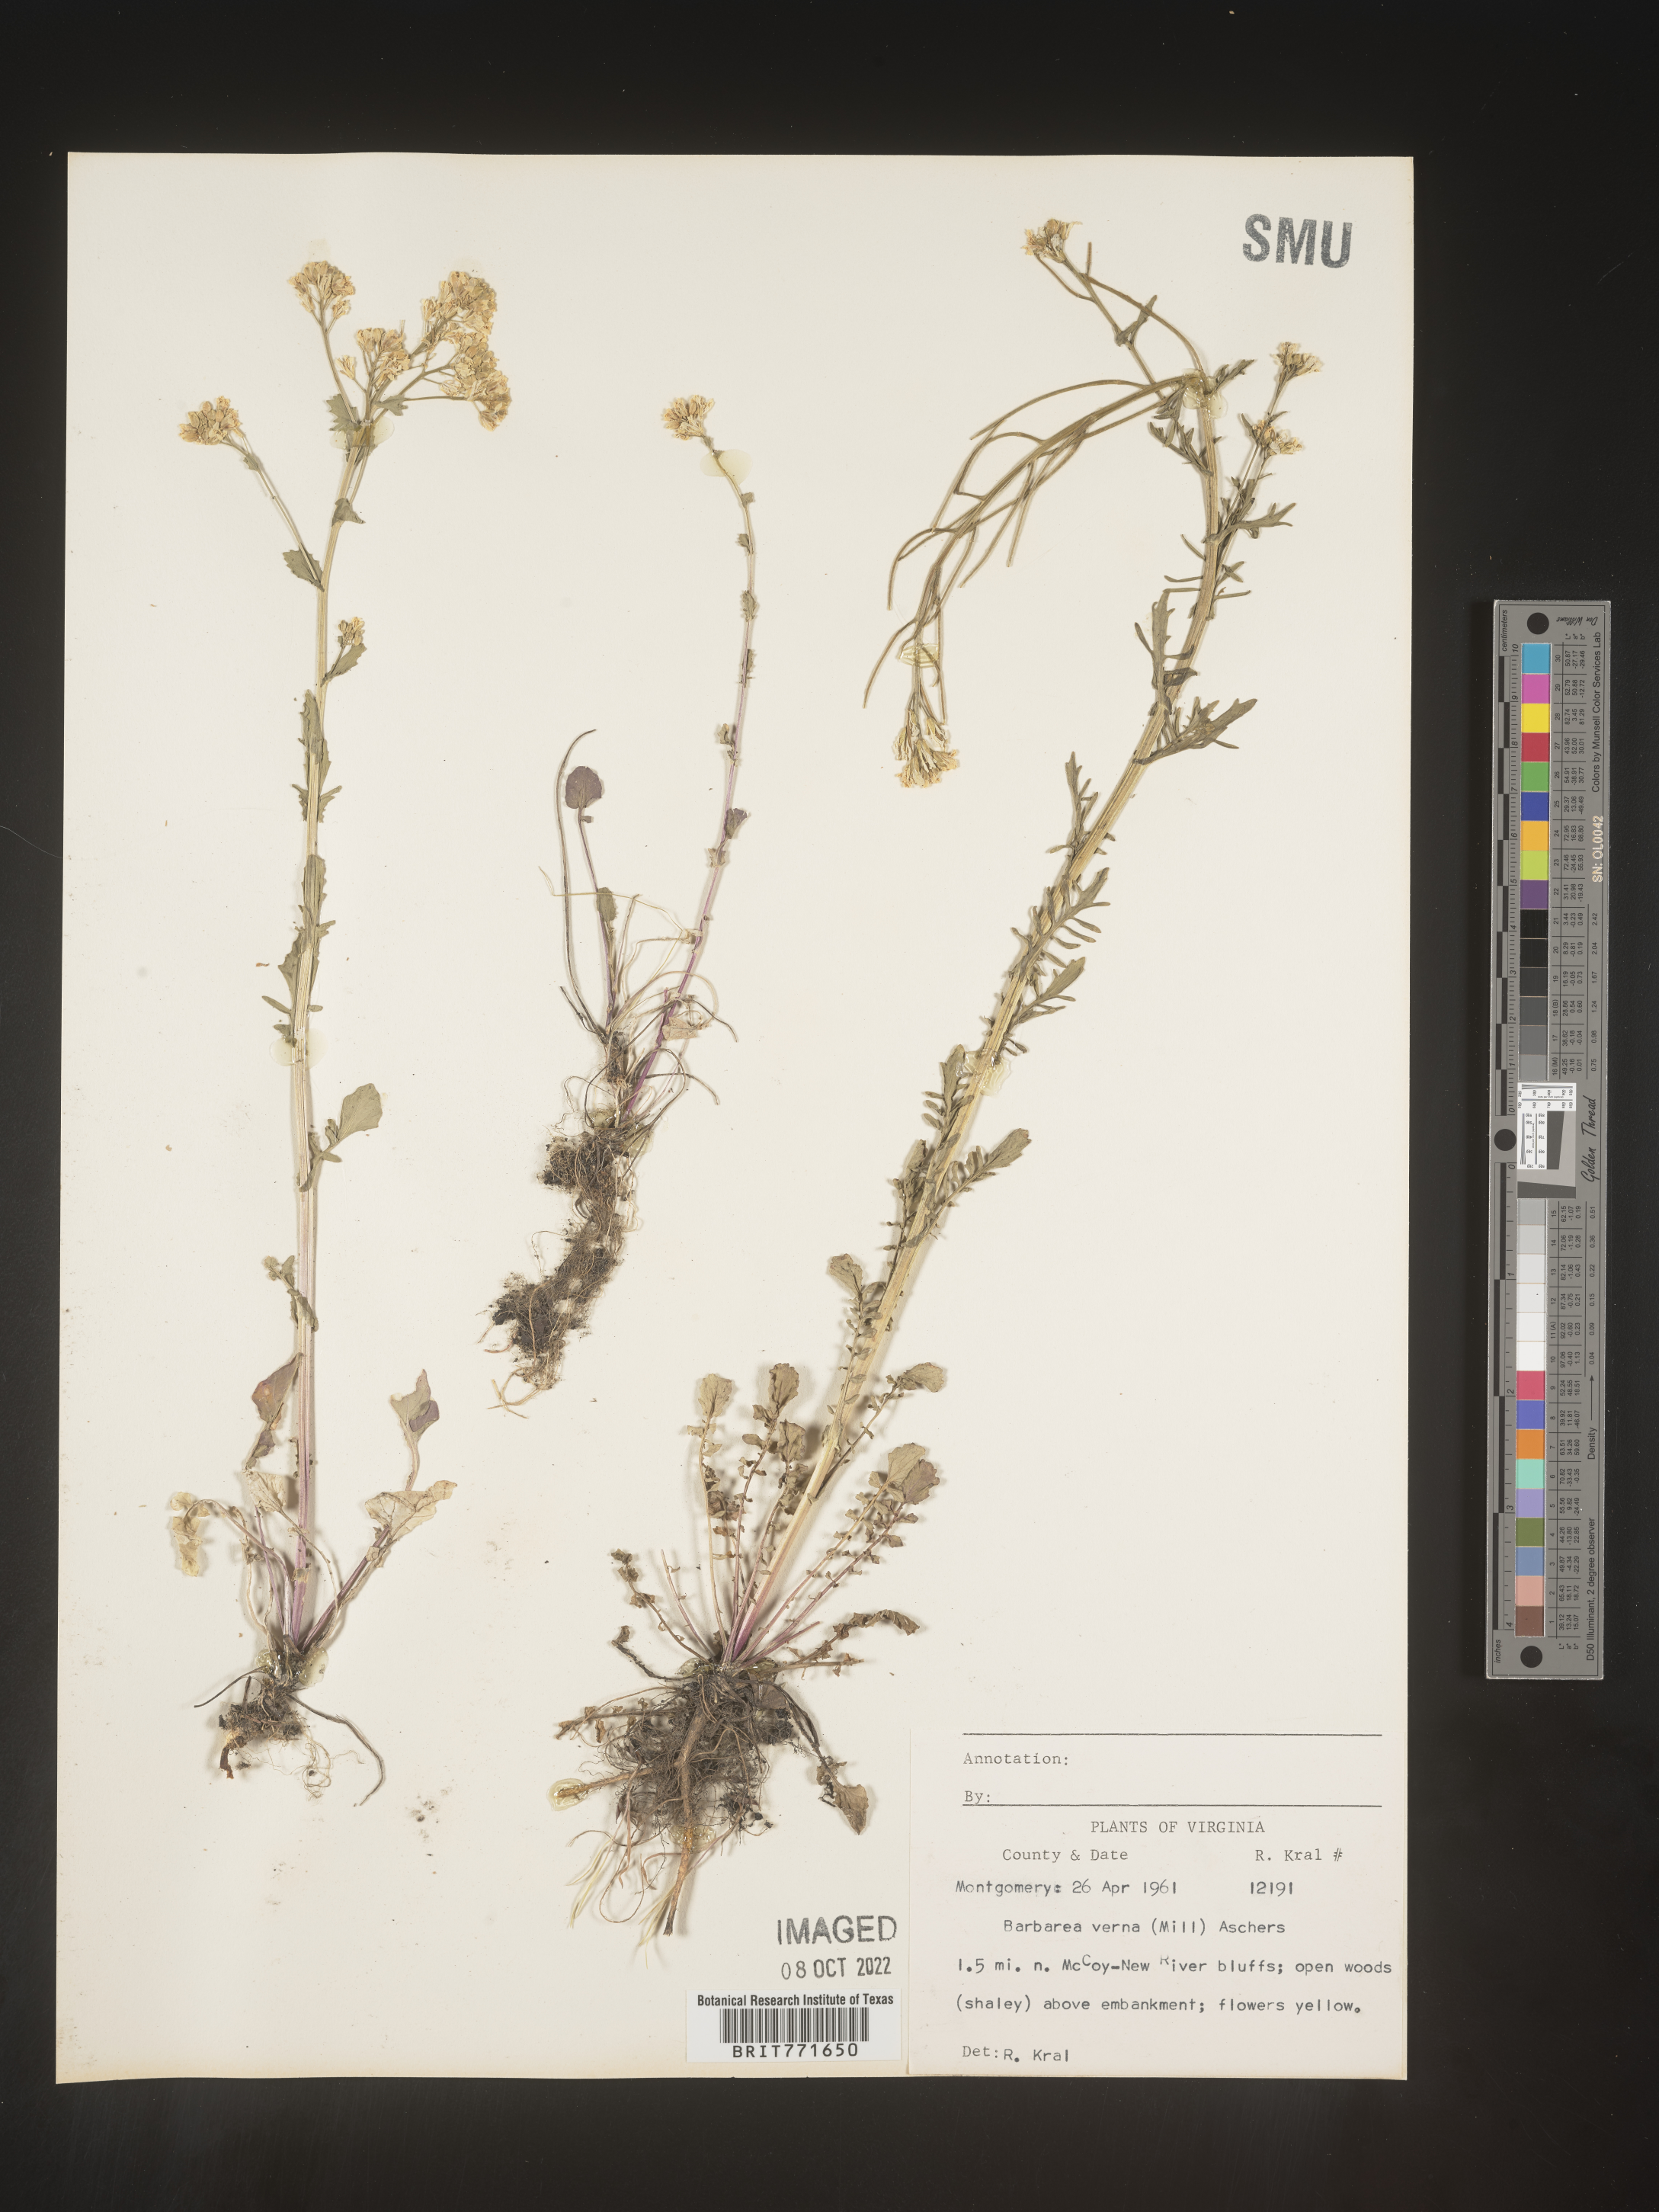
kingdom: Plantae
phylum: Tracheophyta
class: Magnoliopsida
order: Brassicales
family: Brassicaceae
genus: Barbarea
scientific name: Barbarea verna
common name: American cress
